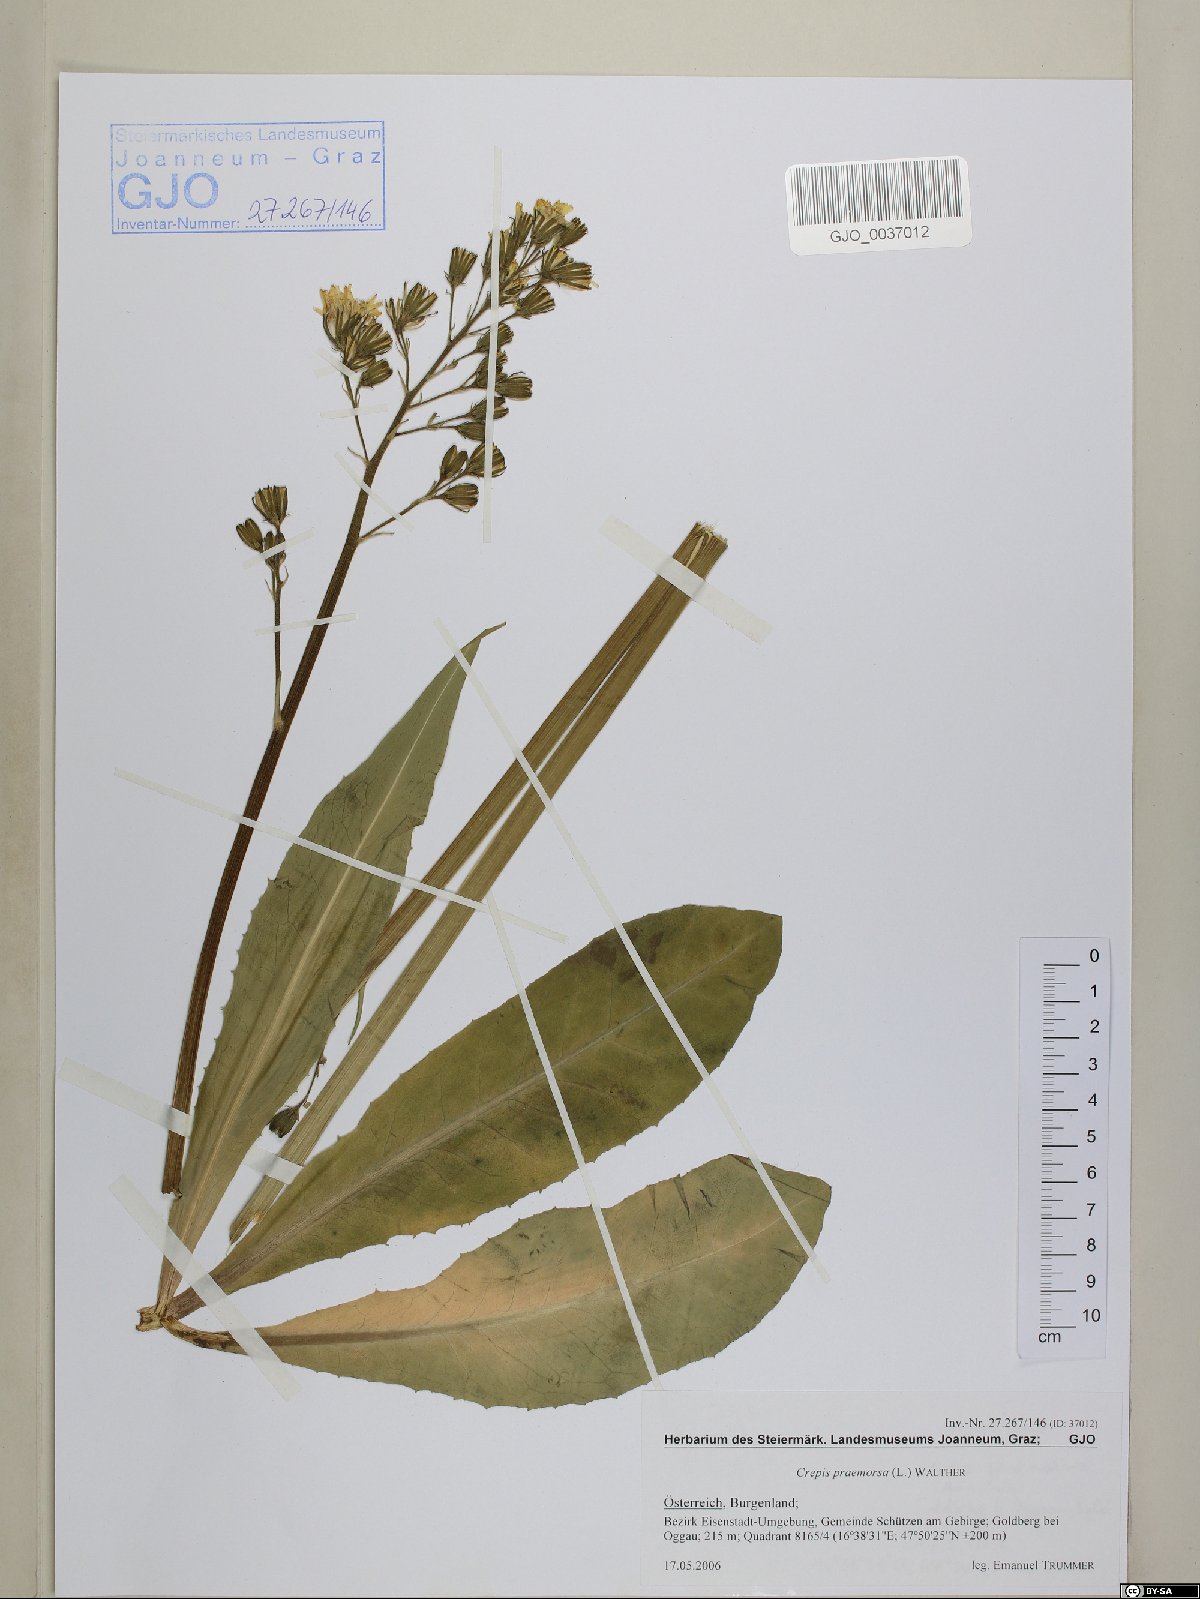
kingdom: Plantae
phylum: Tracheophyta
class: Magnoliopsida
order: Asterales
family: Asteraceae
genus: Crepis
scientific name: Crepis praemorsa
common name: Leafless hawk's-beard
